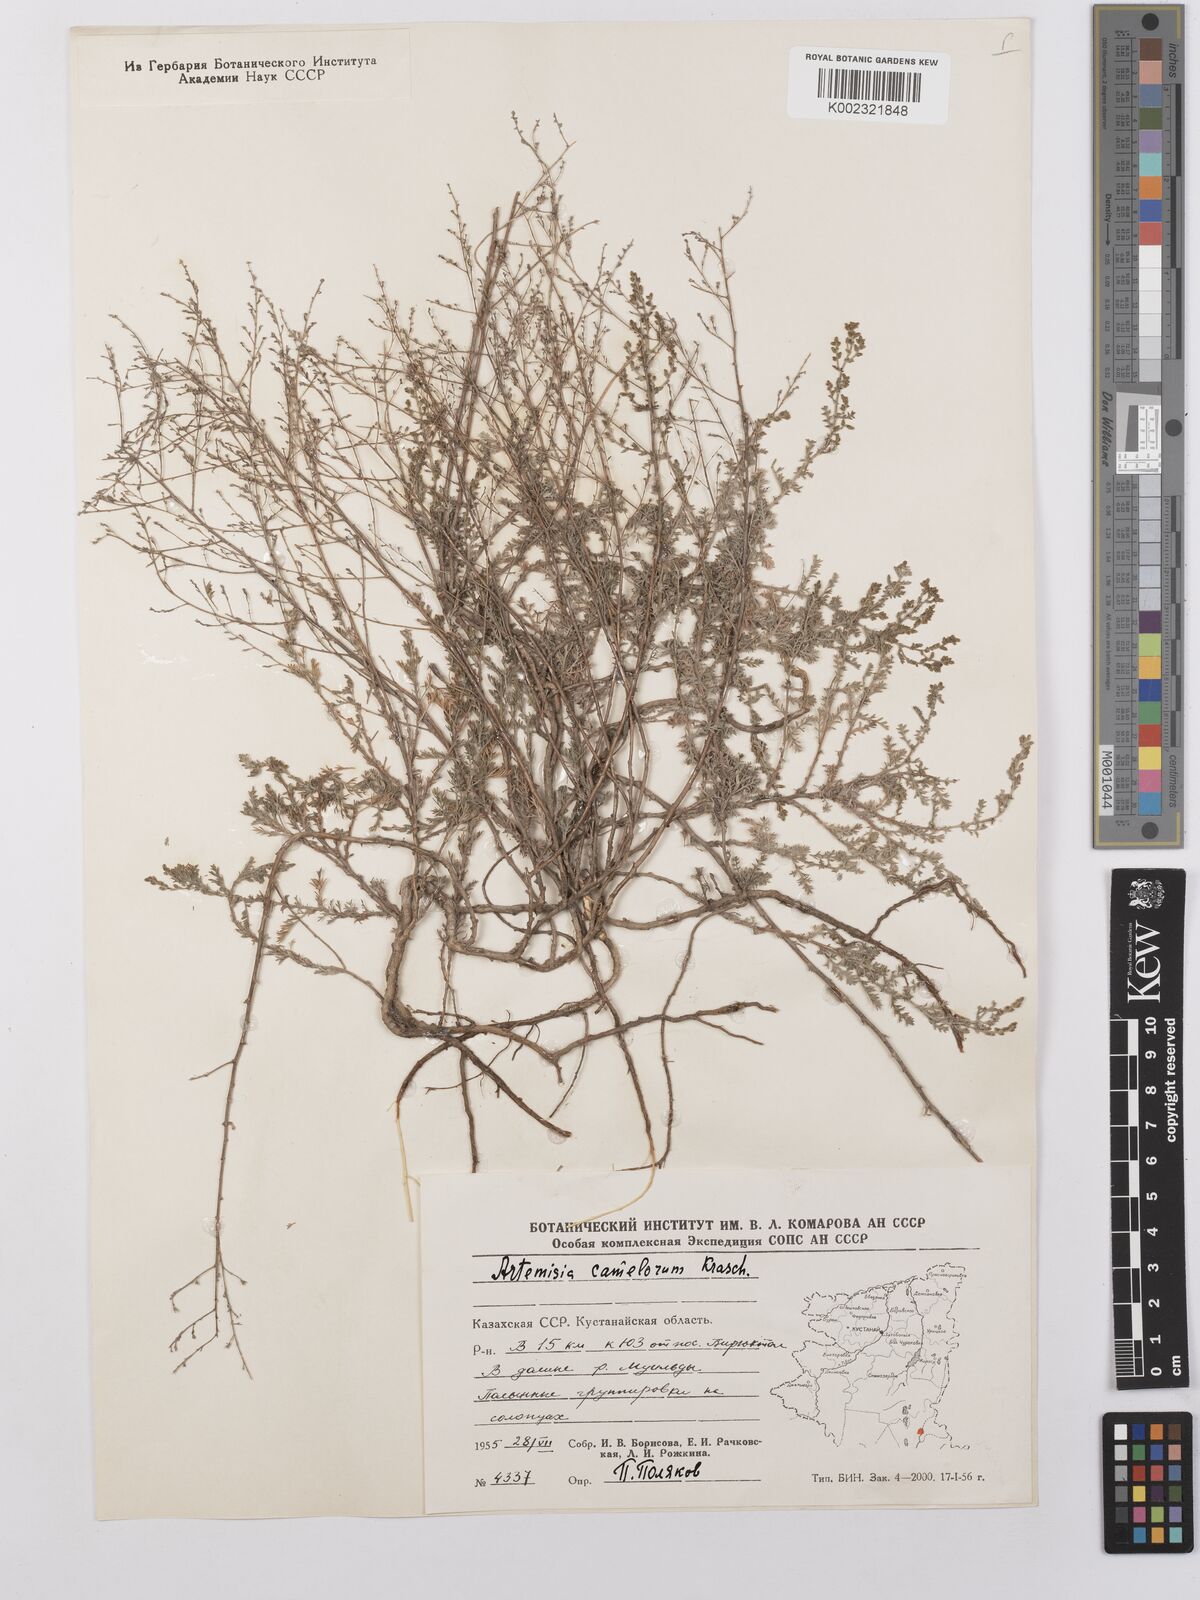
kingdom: Plantae
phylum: Tracheophyta
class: Magnoliopsida
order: Asterales
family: Asteraceae
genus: Artemisia
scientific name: Artemisia camelorum
